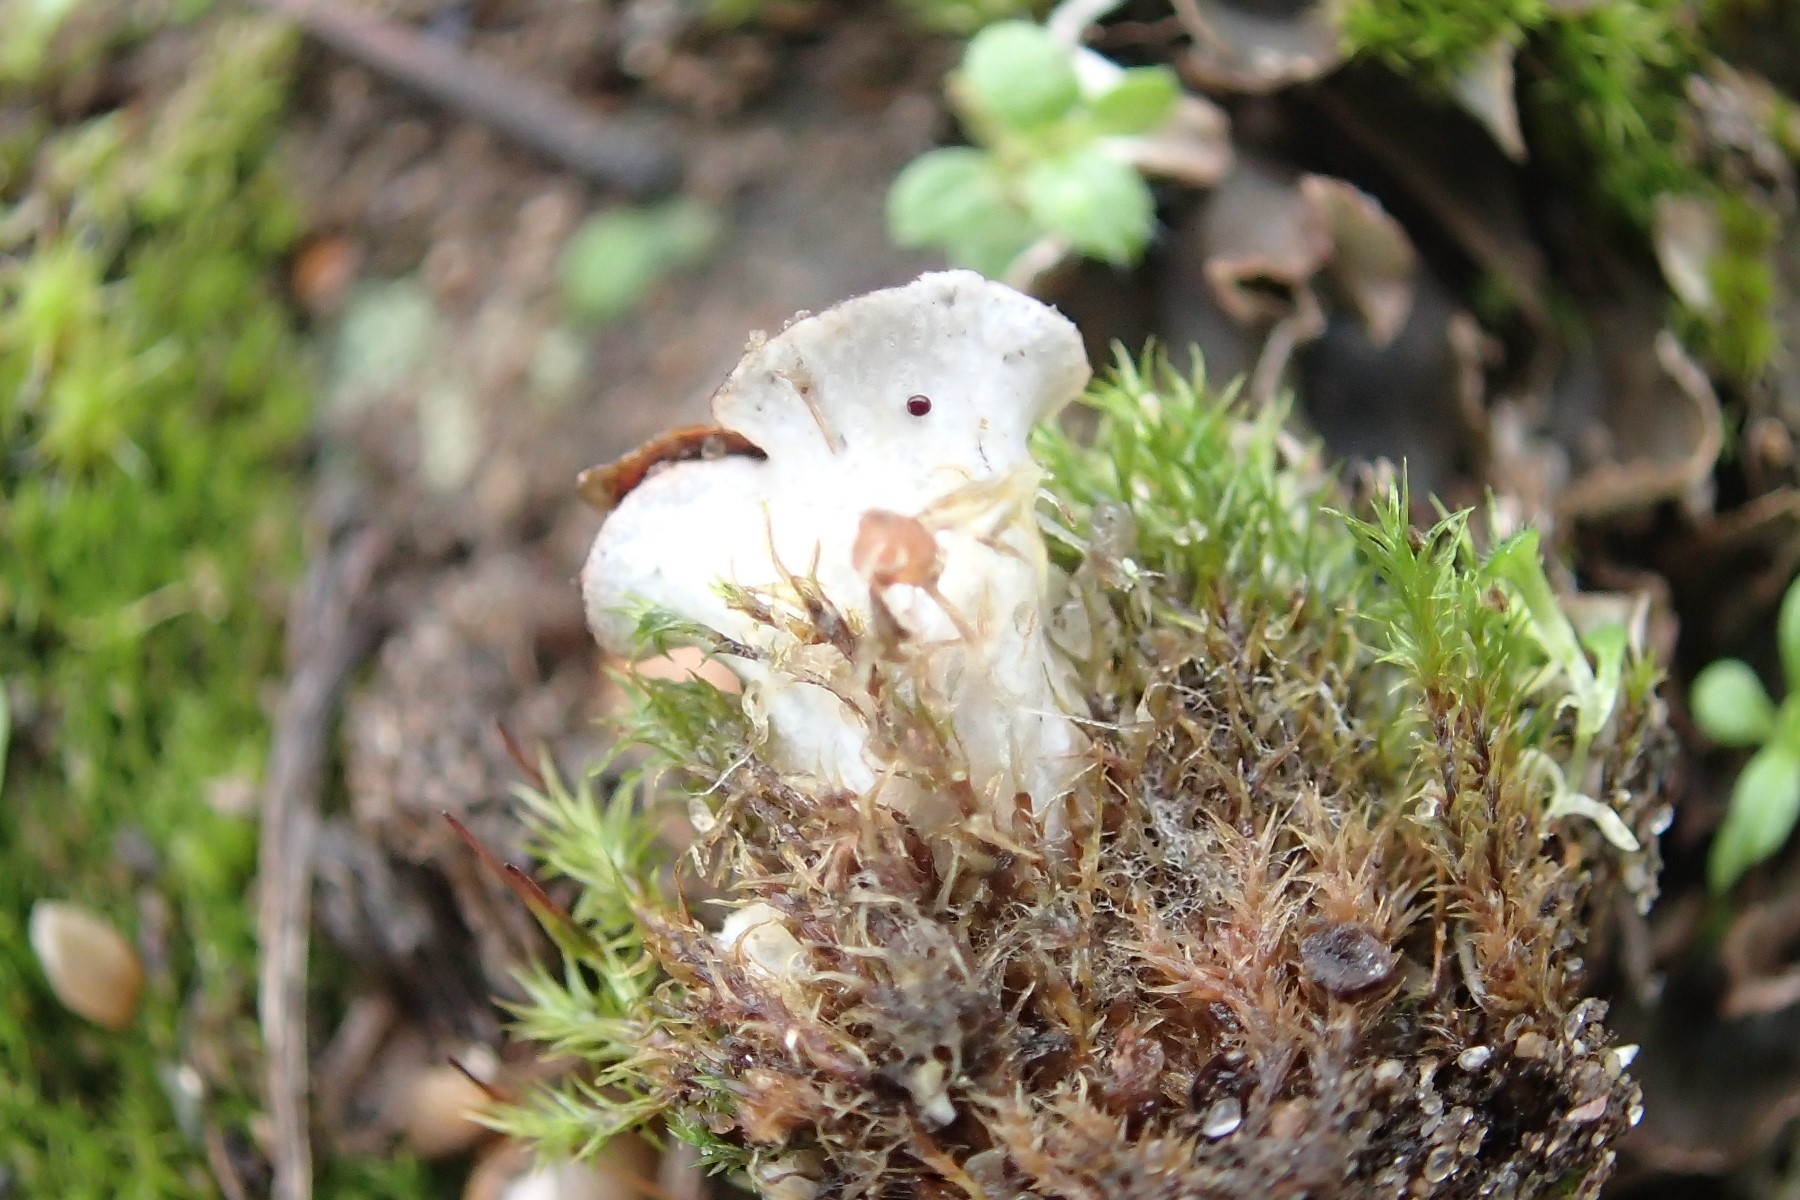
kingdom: Fungi
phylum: Ascomycota
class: Lecanoromycetes
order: Peltigerales
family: Peltigeraceae
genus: Peltigera
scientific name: Peltigera
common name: skjoldlav
